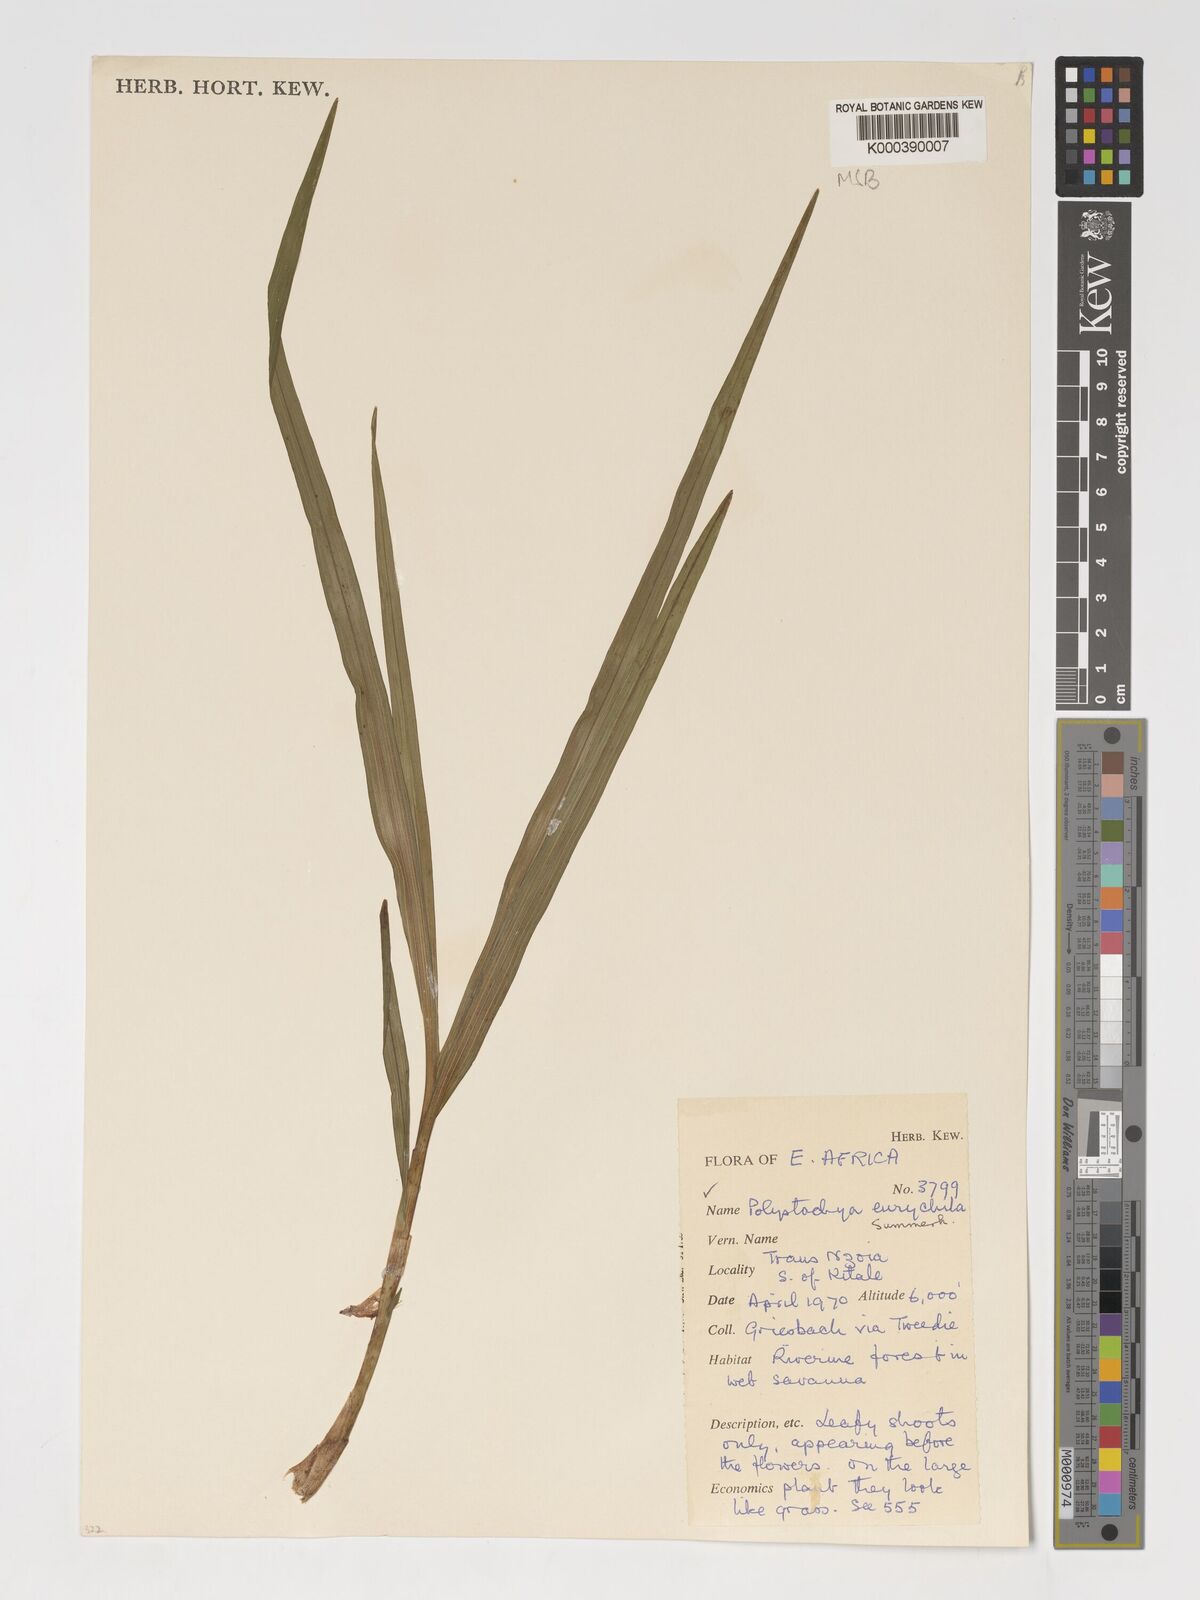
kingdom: Plantae
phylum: Tracheophyta
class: Liliopsida
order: Asparagales
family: Orchidaceae
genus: Polystachya
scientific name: Polystachya eurychila
